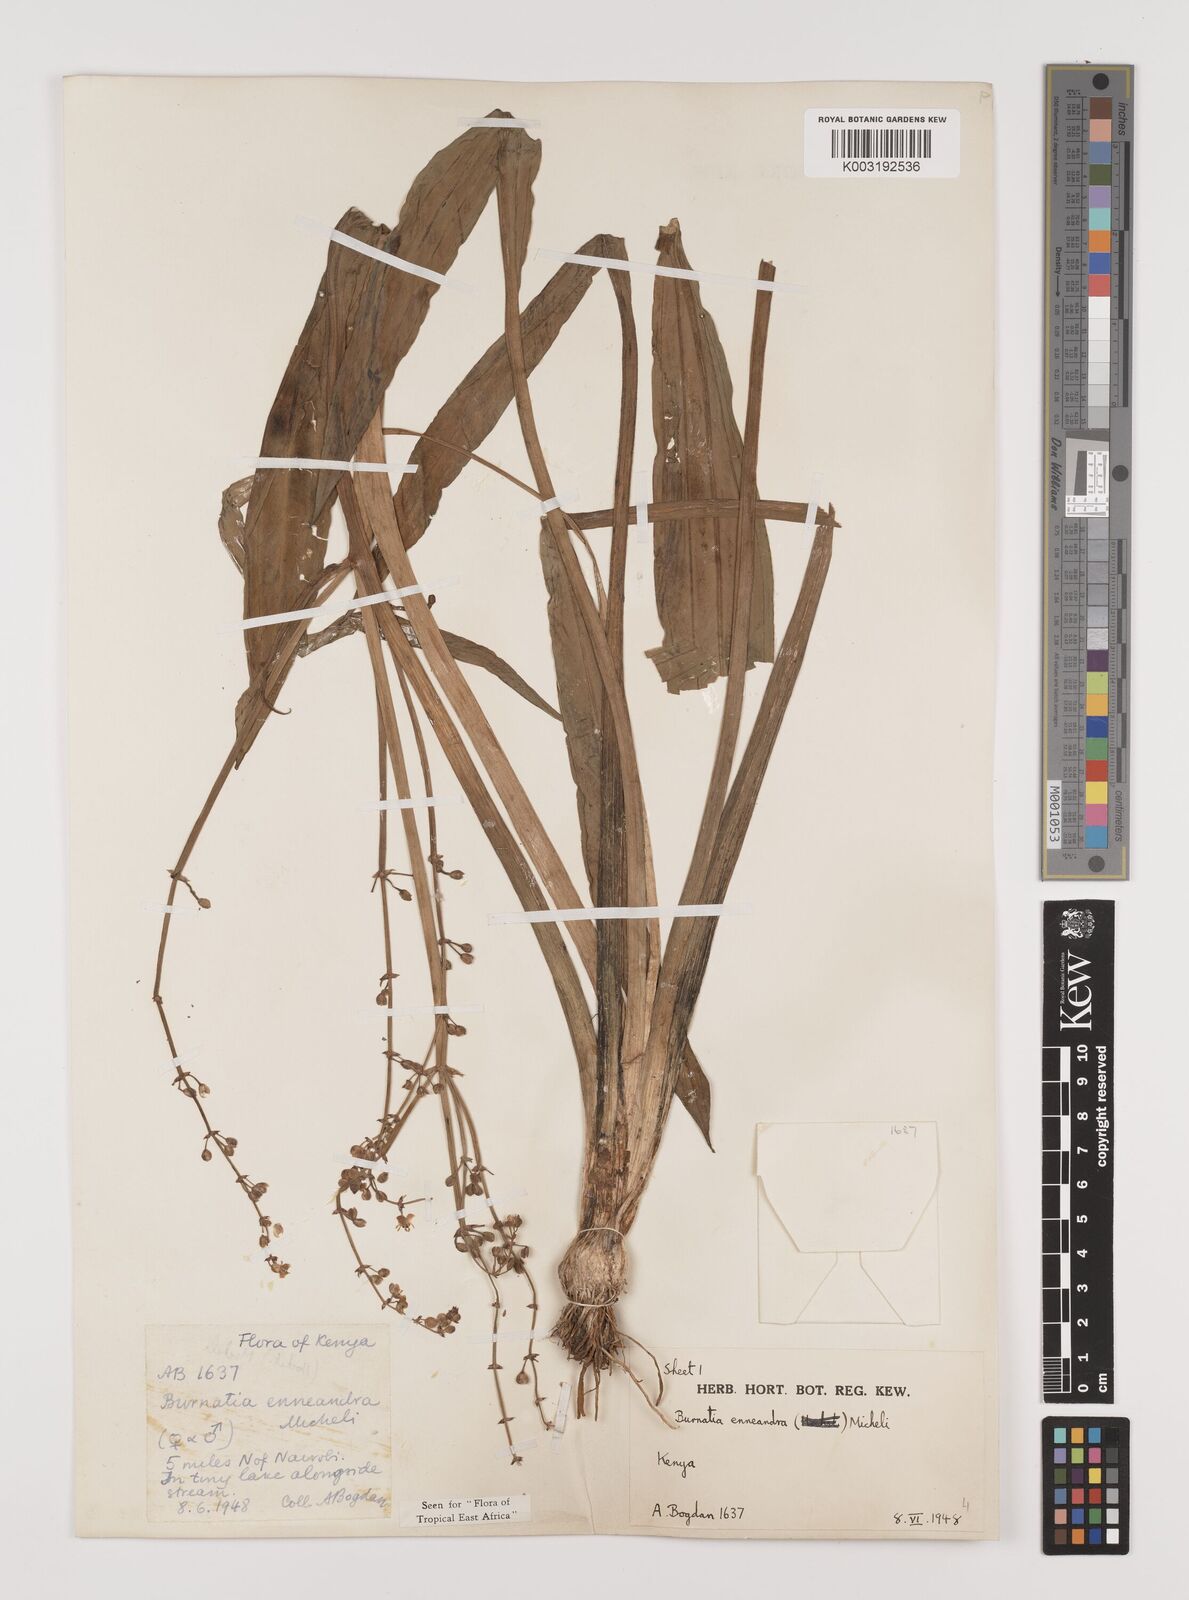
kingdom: Plantae
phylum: Tracheophyta
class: Liliopsida
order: Alismatales
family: Alismataceae
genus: Burnatia
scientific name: Burnatia enneandra
